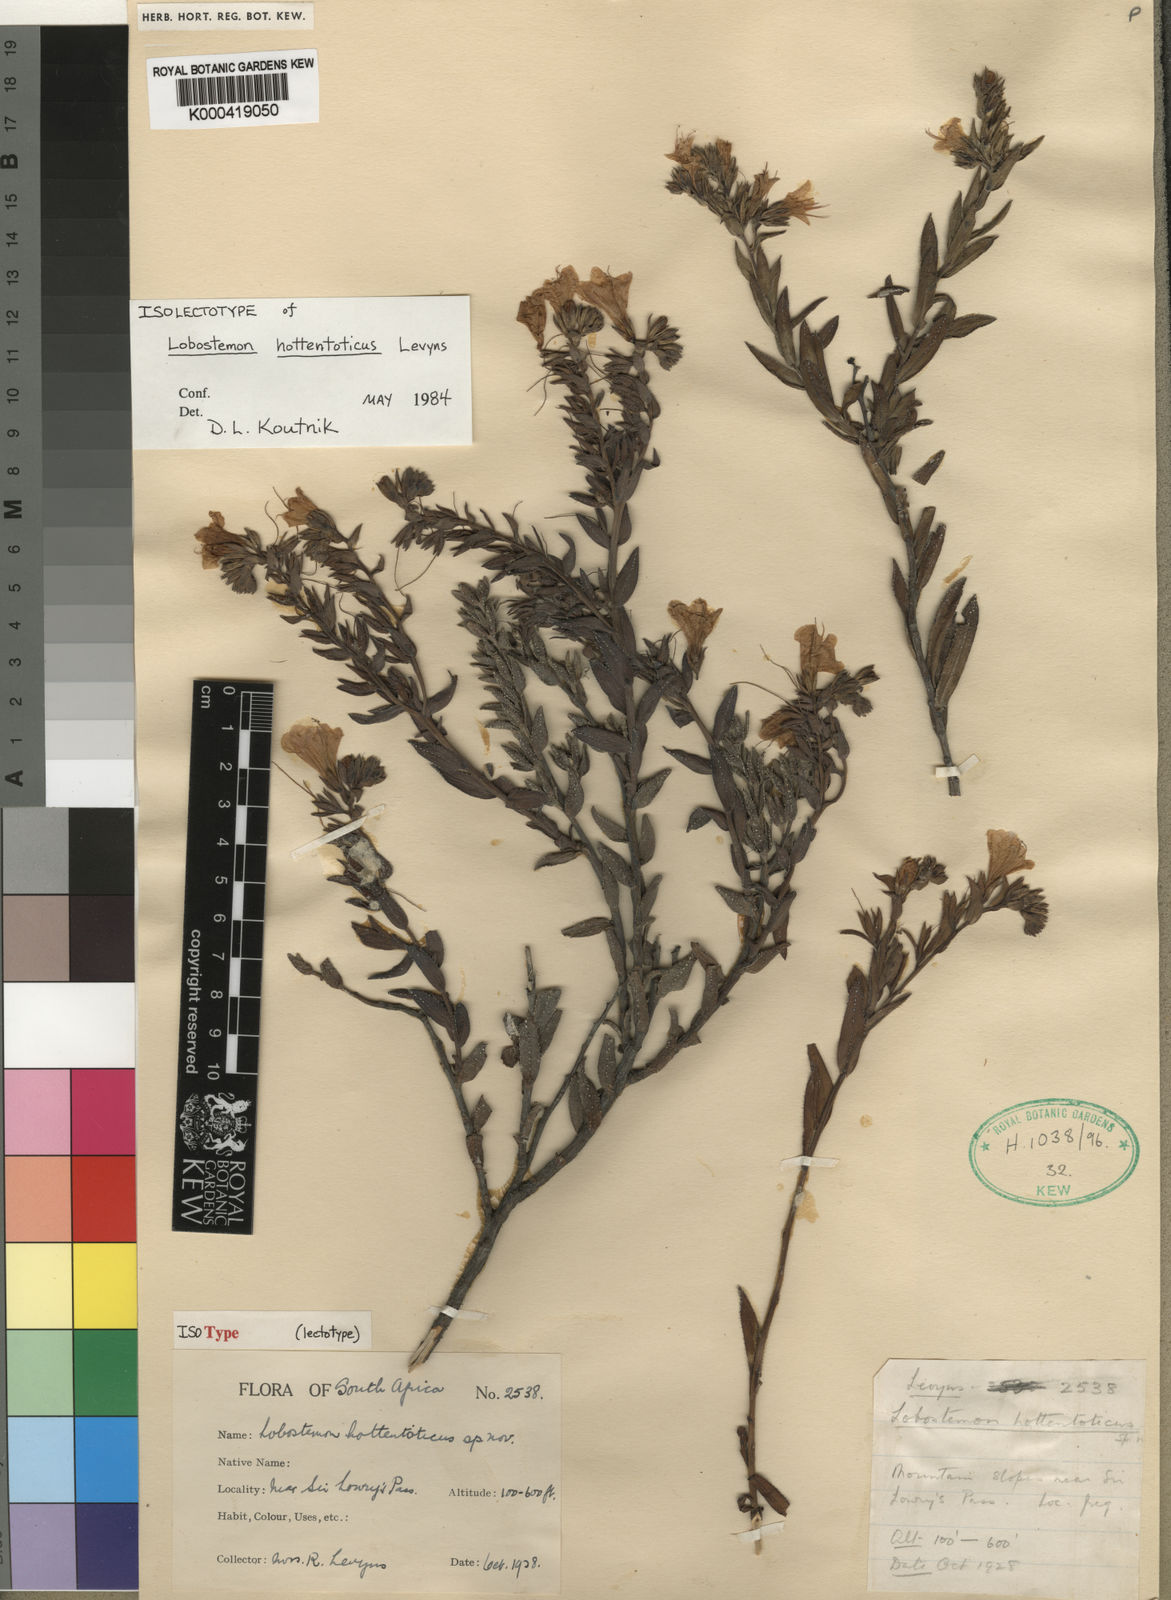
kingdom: Plantae
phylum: Tracheophyta
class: Magnoliopsida
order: Boraginales
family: Boraginaceae
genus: Lobostemon
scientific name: Lobostemon hottentoticus
